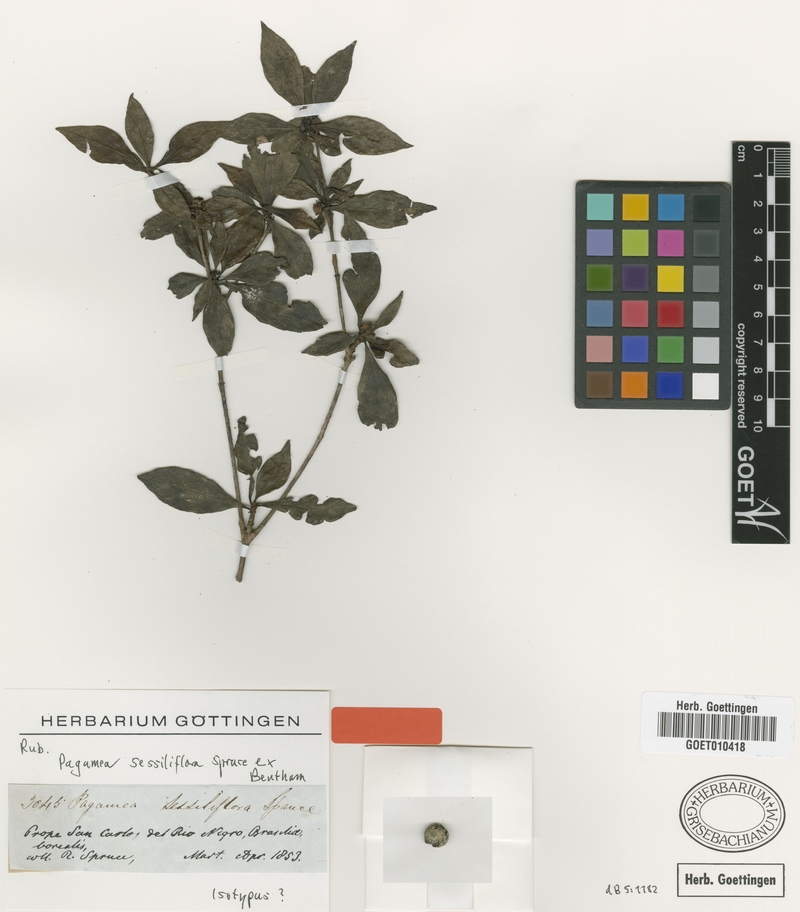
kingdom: Plantae
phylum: Tracheophyta
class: Magnoliopsida
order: Gentianales
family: Rubiaceae
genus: Pagamea
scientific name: Pagamea sessiliflora
